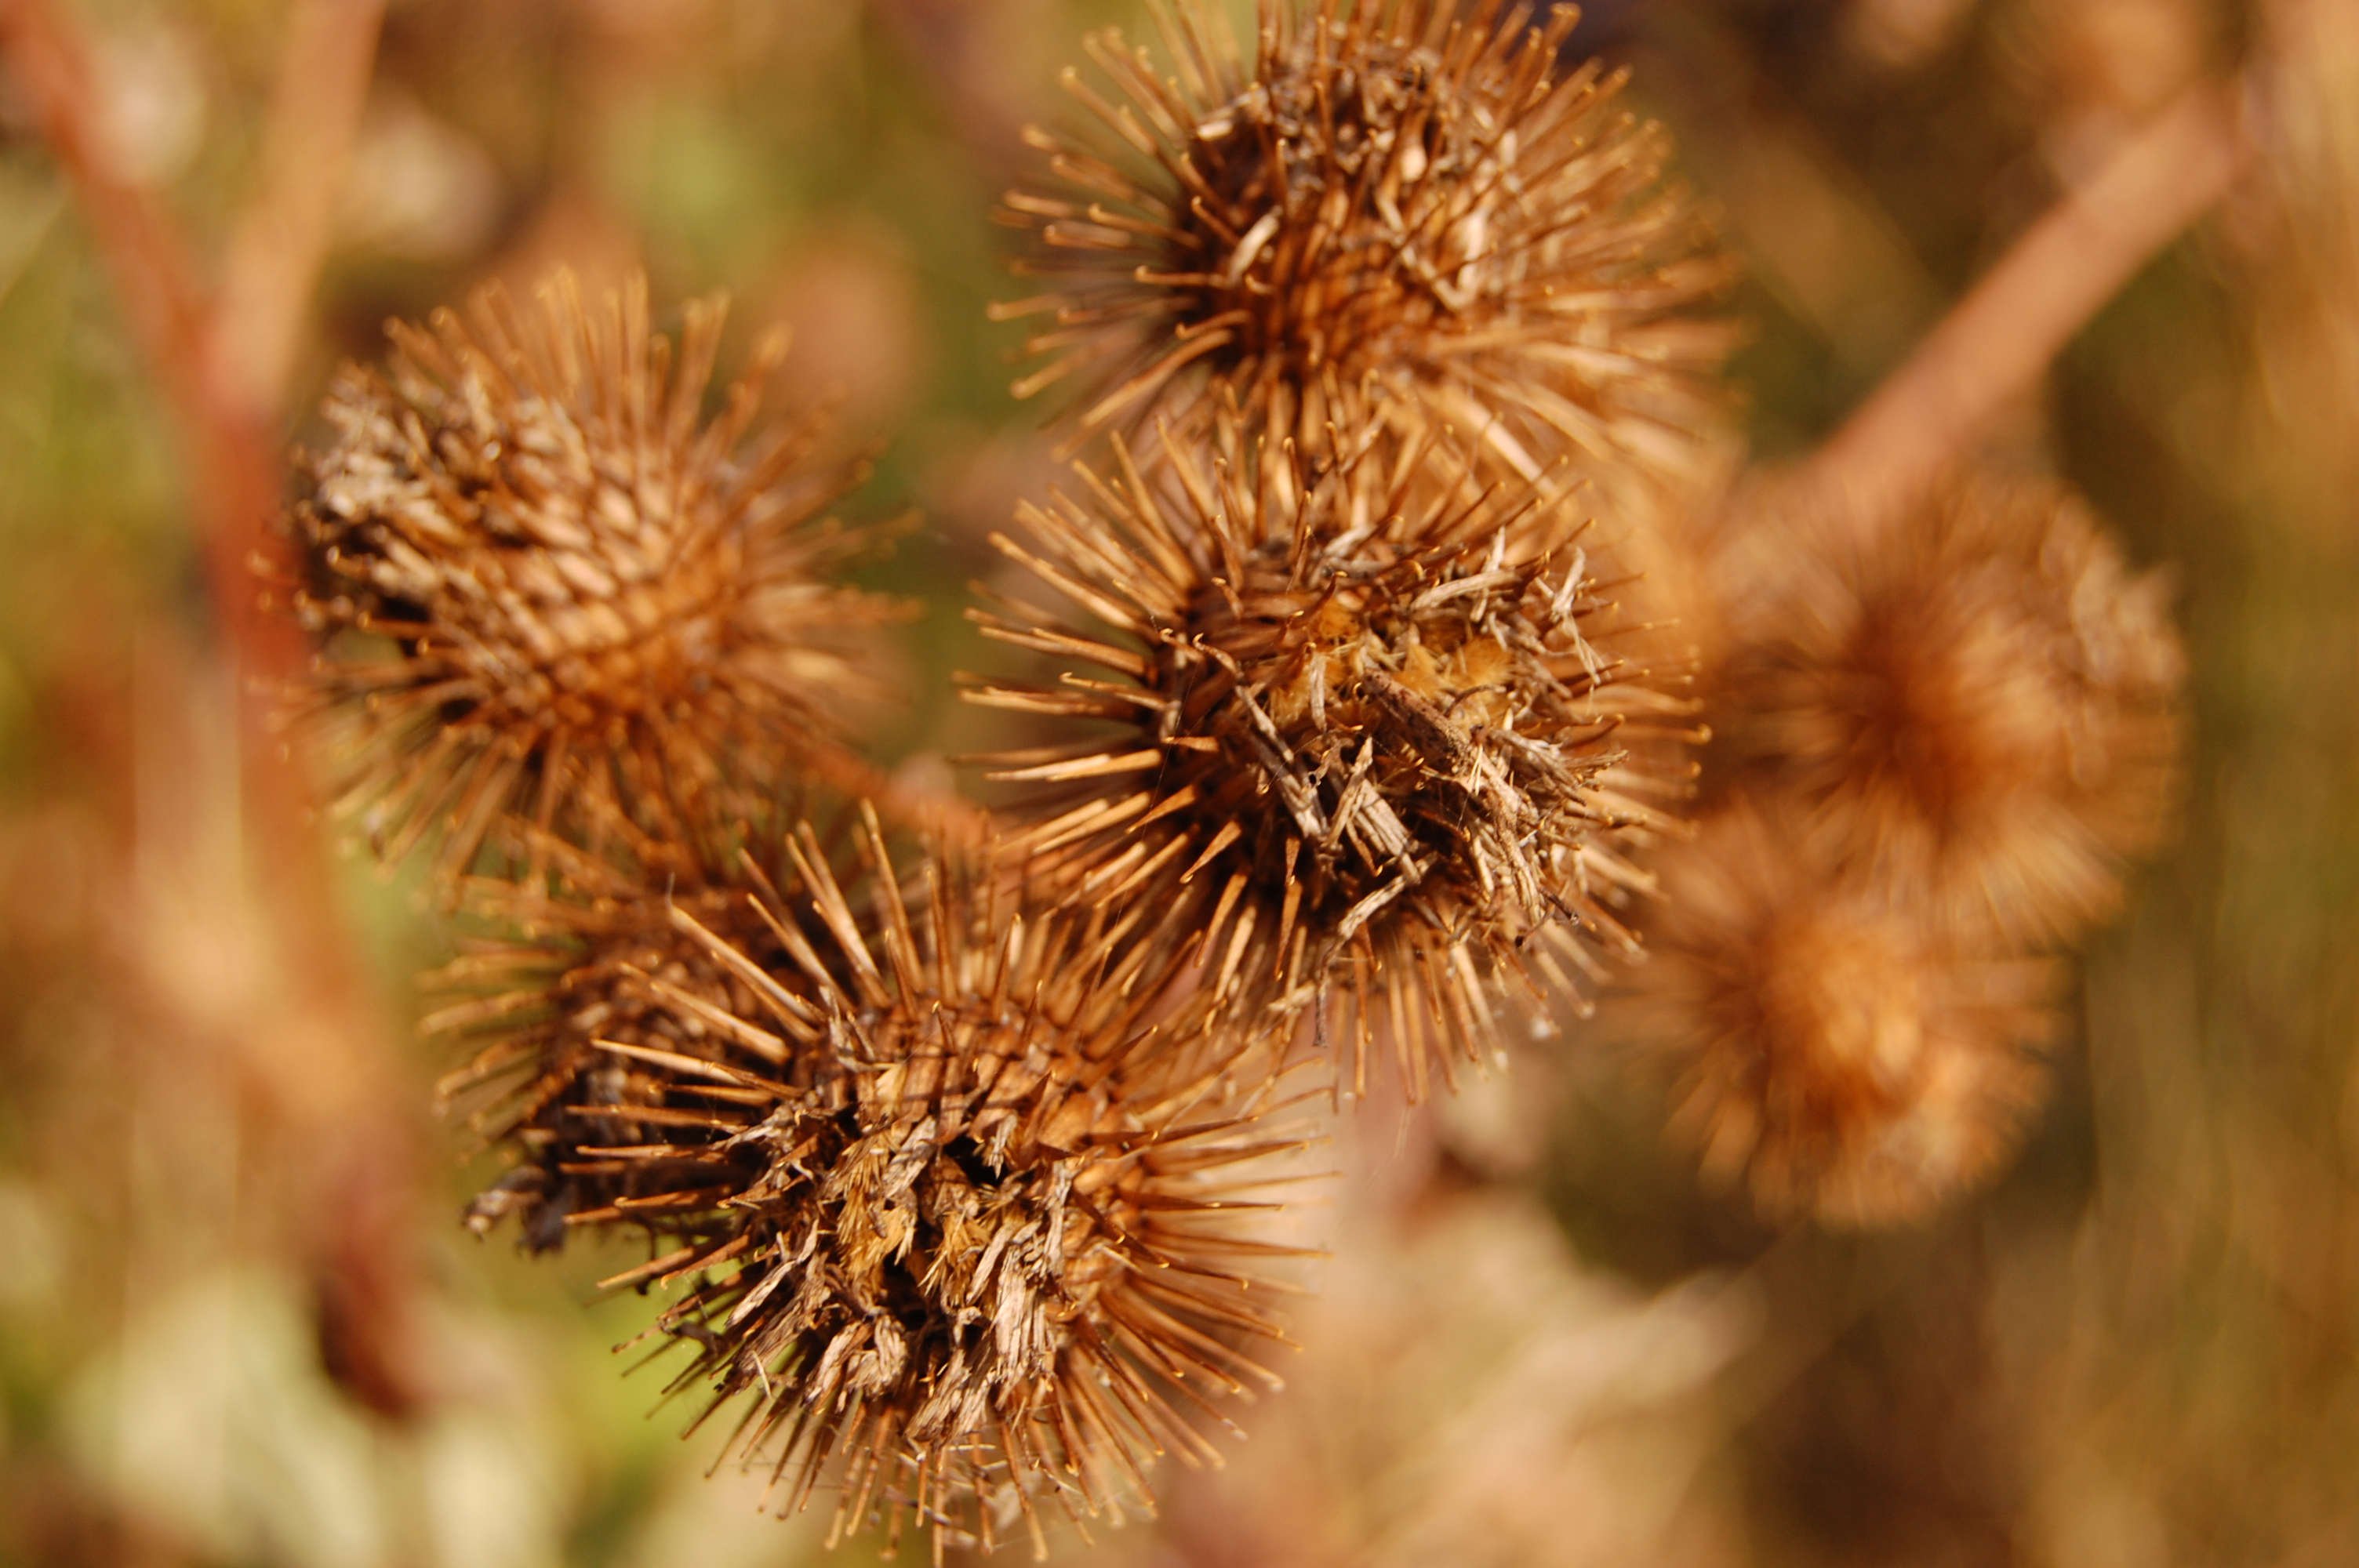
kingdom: Plantae
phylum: Tracheophyta
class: Magnoliopsida
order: Asterales
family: Asteraceae
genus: Arctium
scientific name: Arctium lappa
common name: Greater burdock
